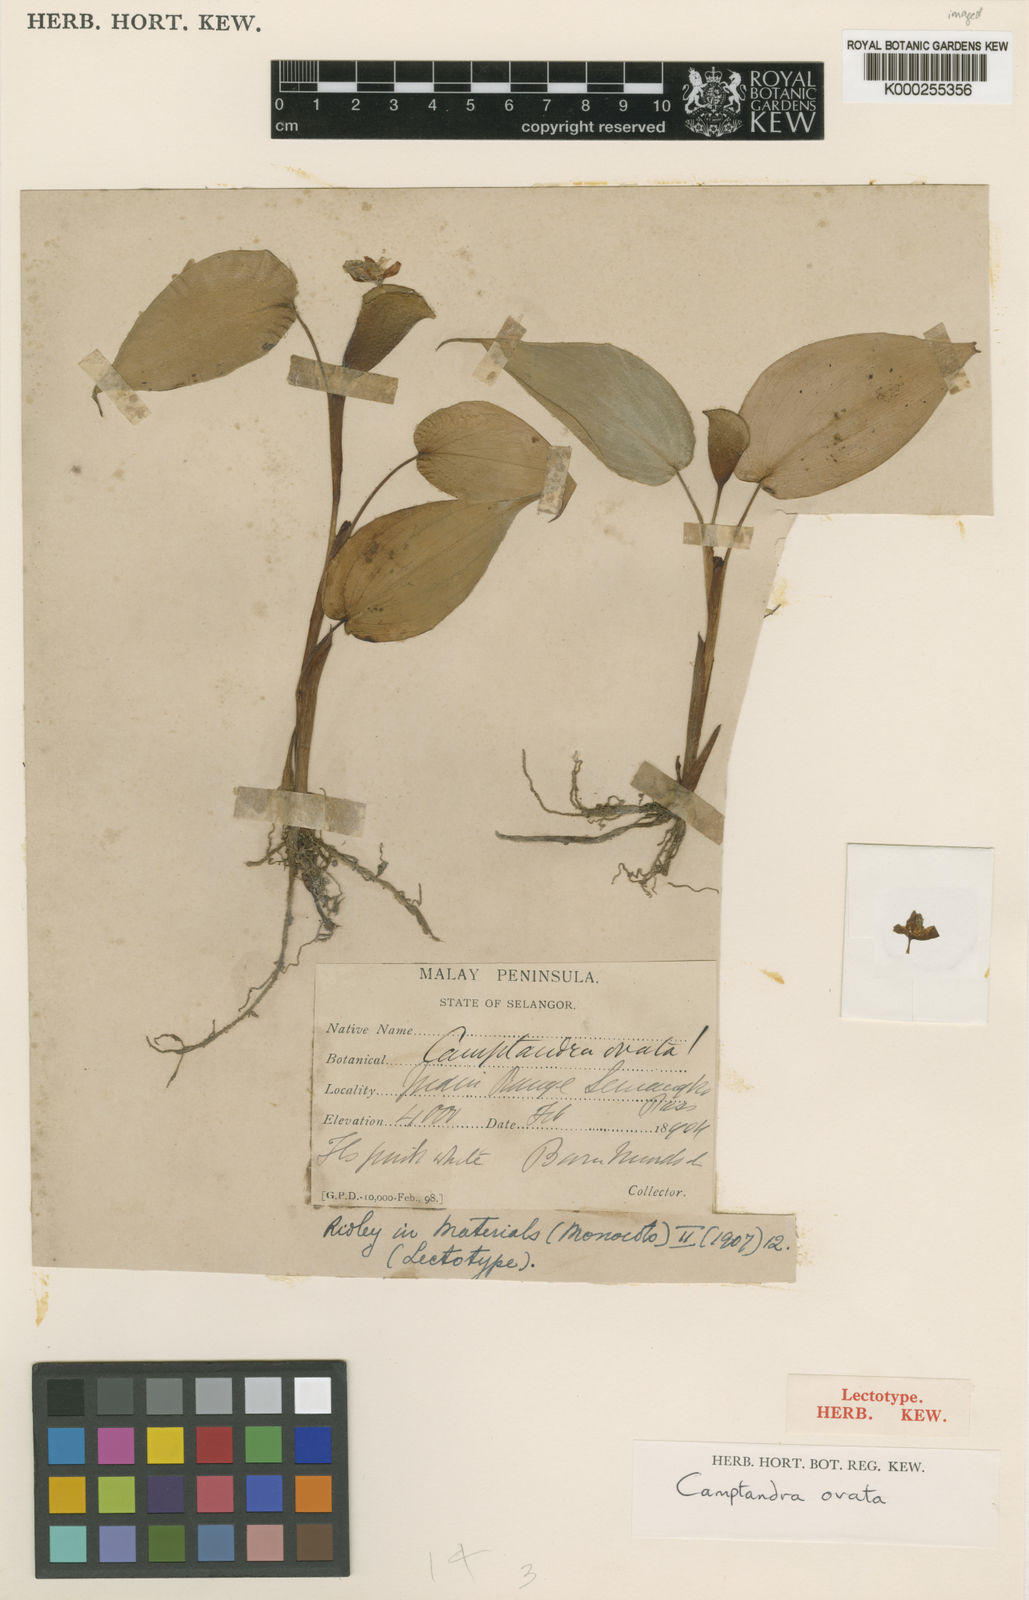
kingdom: Plantae
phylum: Tracheophyta
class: Liliopsida
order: Zingiberales
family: Zingiberaceae
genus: Camptandra
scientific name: Camptandra ovata
